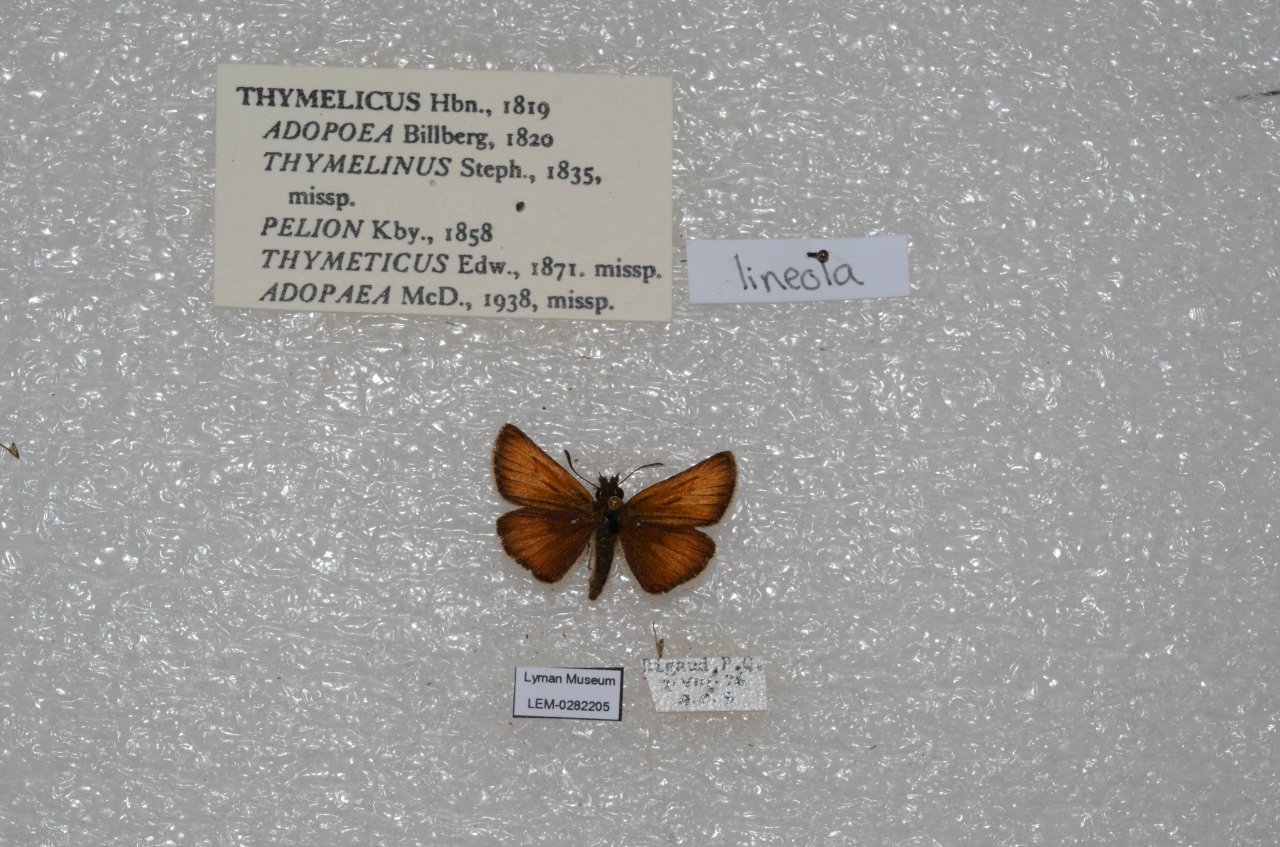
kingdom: Animalia
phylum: Arthropoda
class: Insecta
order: Lepidoptera
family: Hesperiidae
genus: Thymelicus
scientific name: Thymelicus lineola
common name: European Skipper
